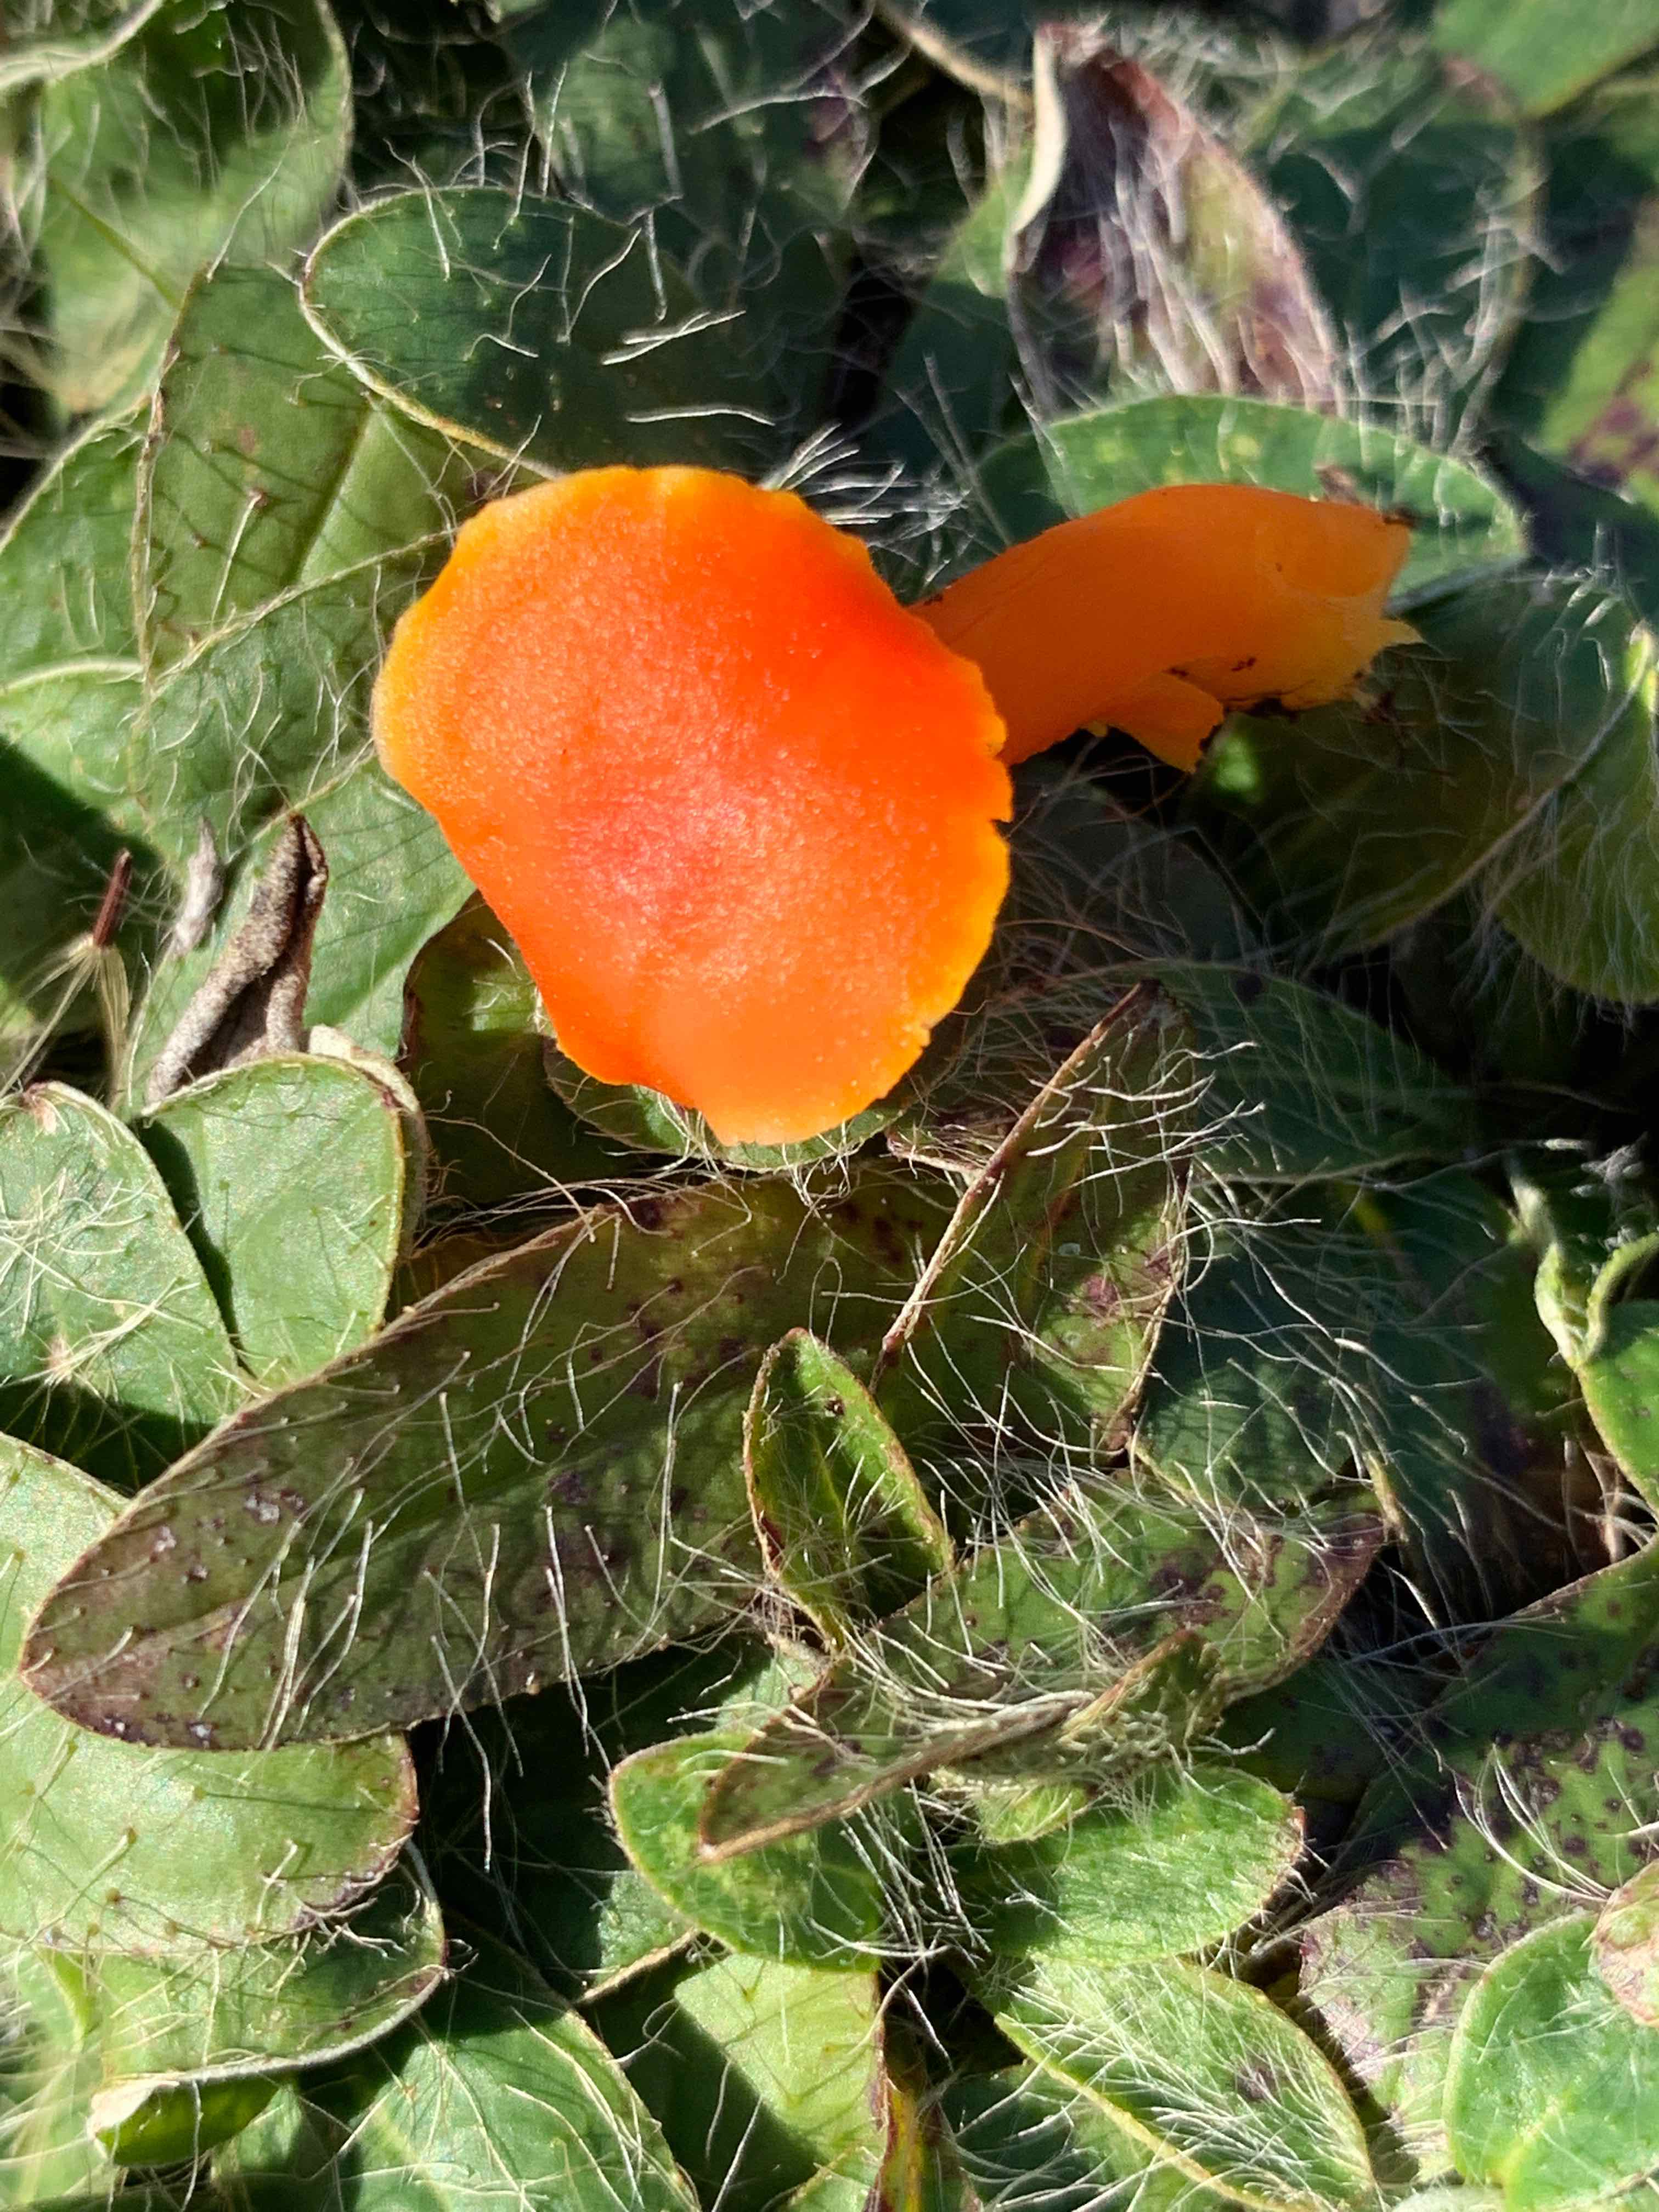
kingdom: Fungi
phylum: Basidiomycota
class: Agaricomycetes
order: Agaricales
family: Hygrophoraceae
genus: Hygrocybe
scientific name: Hygrocybe miniata
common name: mønje-vokshat
